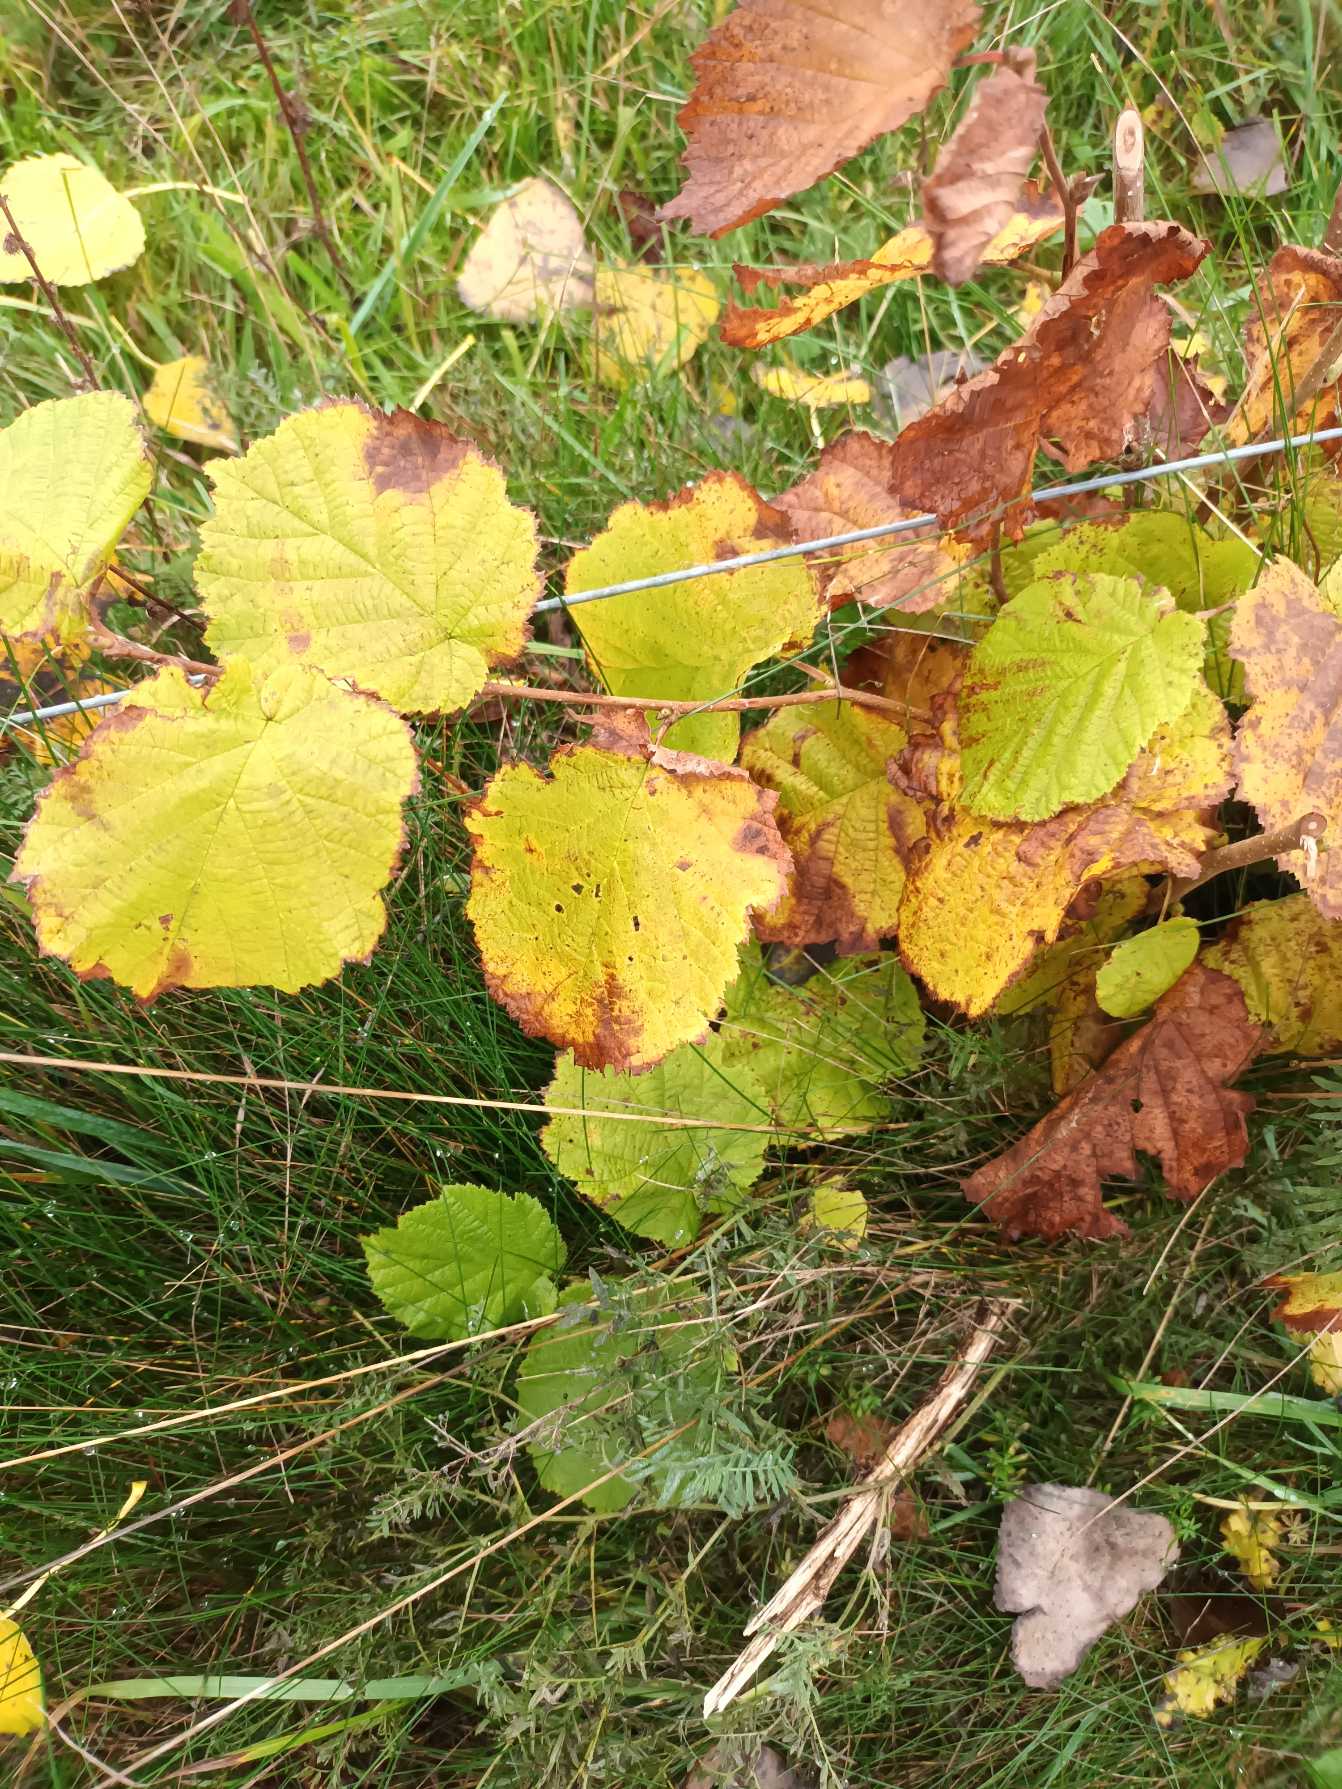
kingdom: Plantae
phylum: Tracheophyta
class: Magnoliopsida
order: Fagales
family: Betulaceae
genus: Corylus
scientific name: Corylus avellana
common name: Hassel
